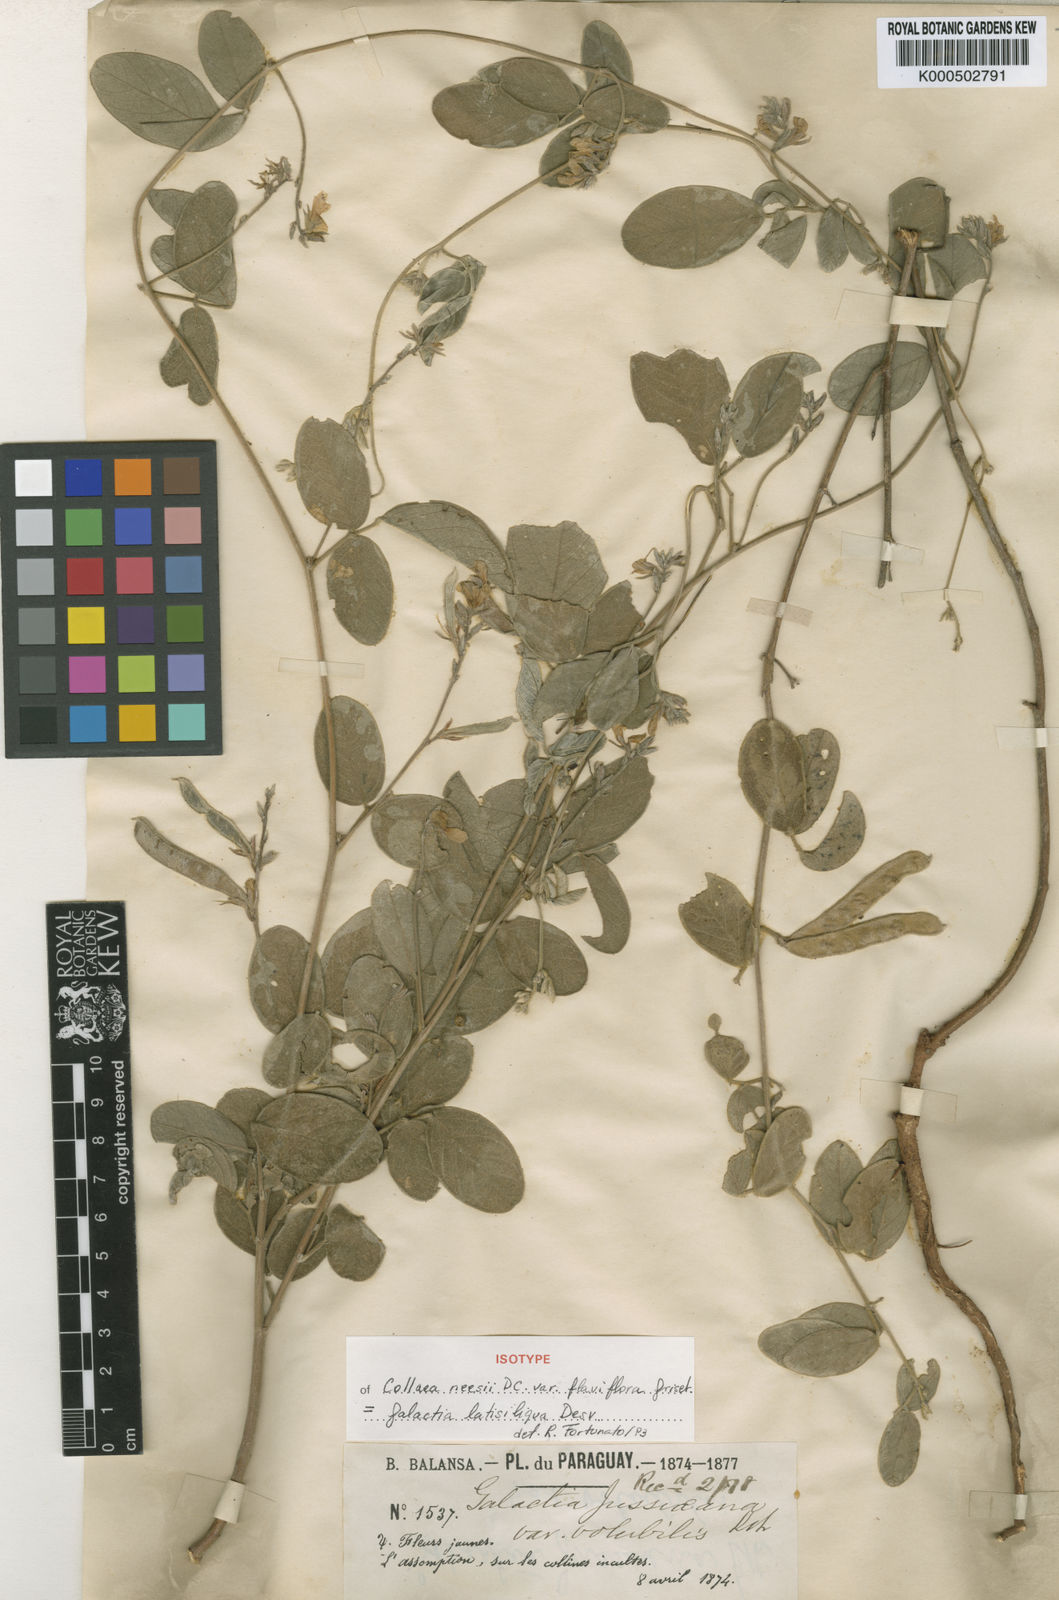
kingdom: Plantae
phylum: Tracheophyta
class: Magnoliopsida
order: Fabales
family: Fabaceae
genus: Galactia
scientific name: Galactia latisiliqua
